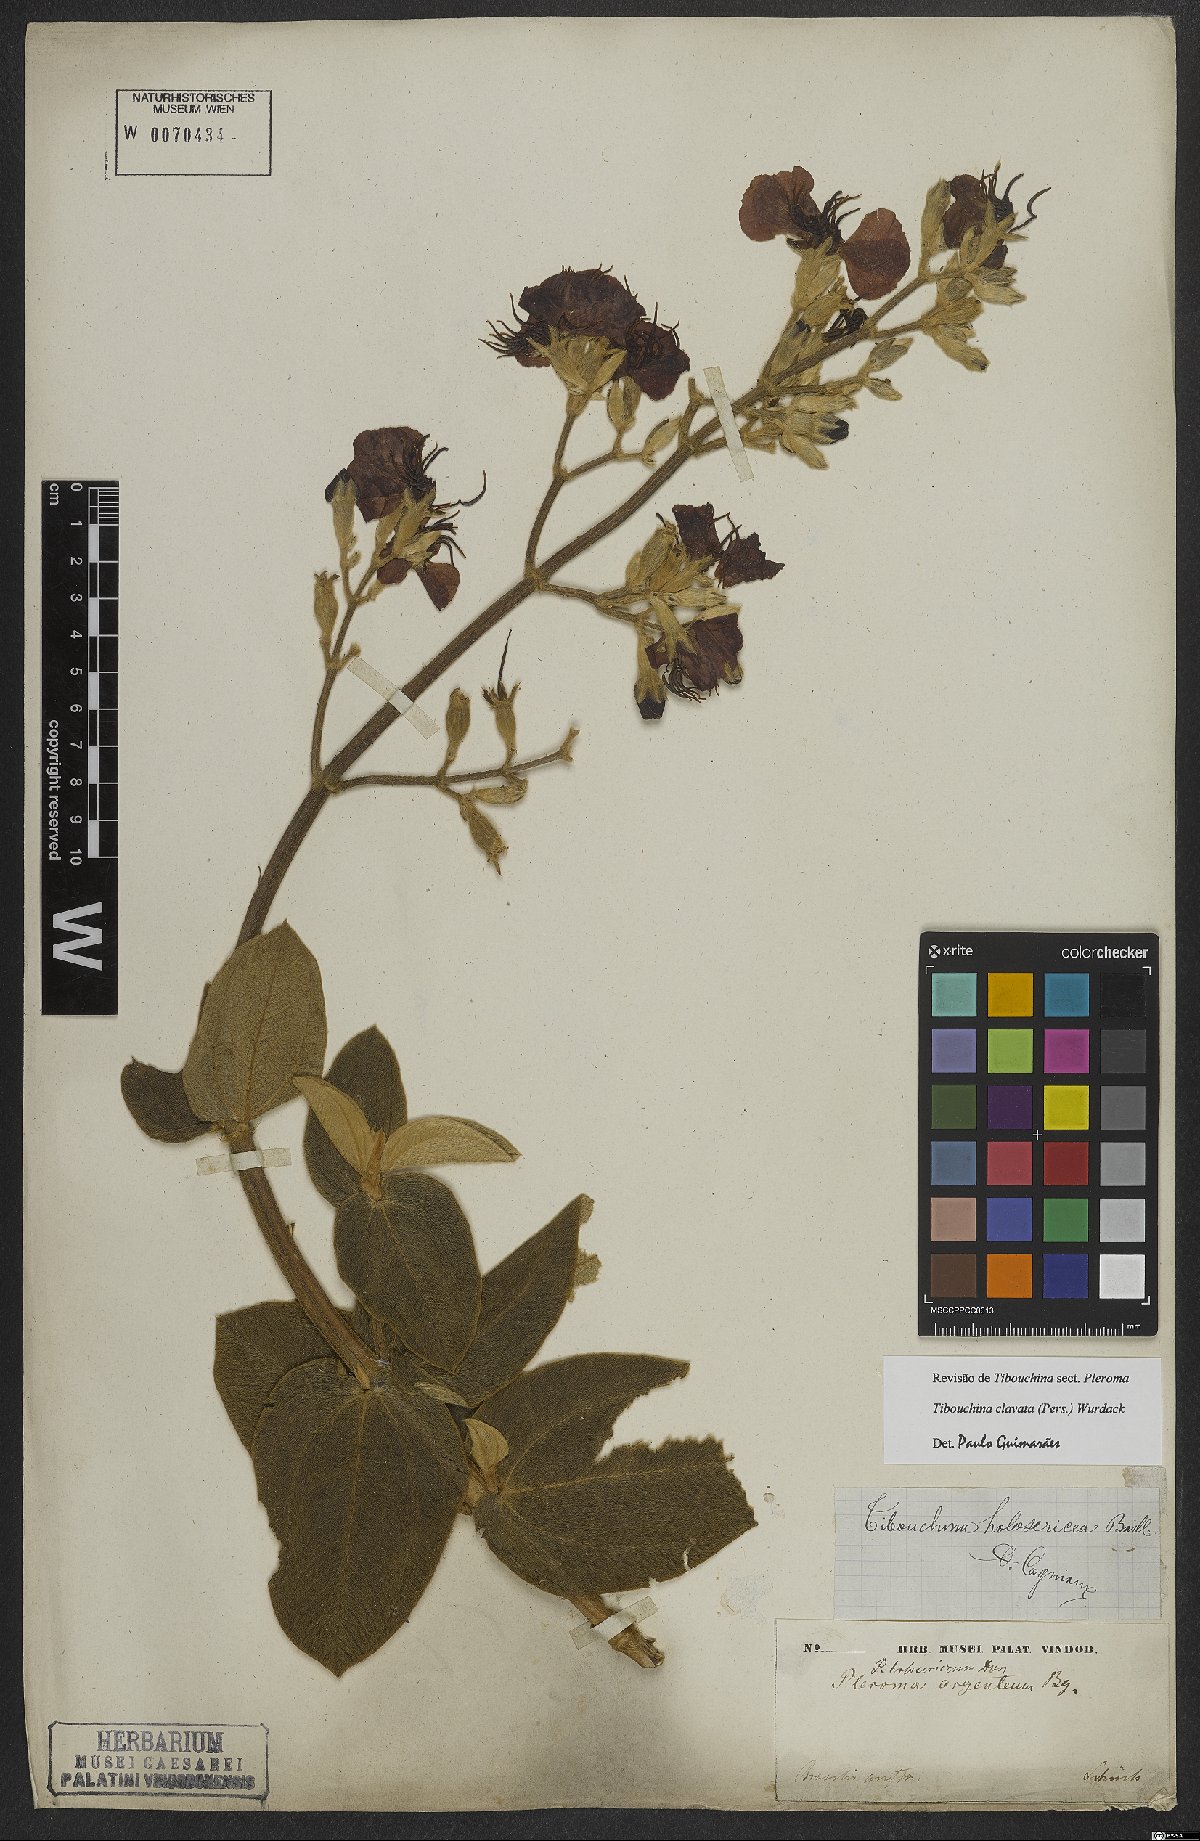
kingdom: Plantae
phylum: Tracheophyta
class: Magnoliopsida
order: Myrtales
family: Melastomataceae
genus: Pleroma
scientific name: Pleroma clavatum
